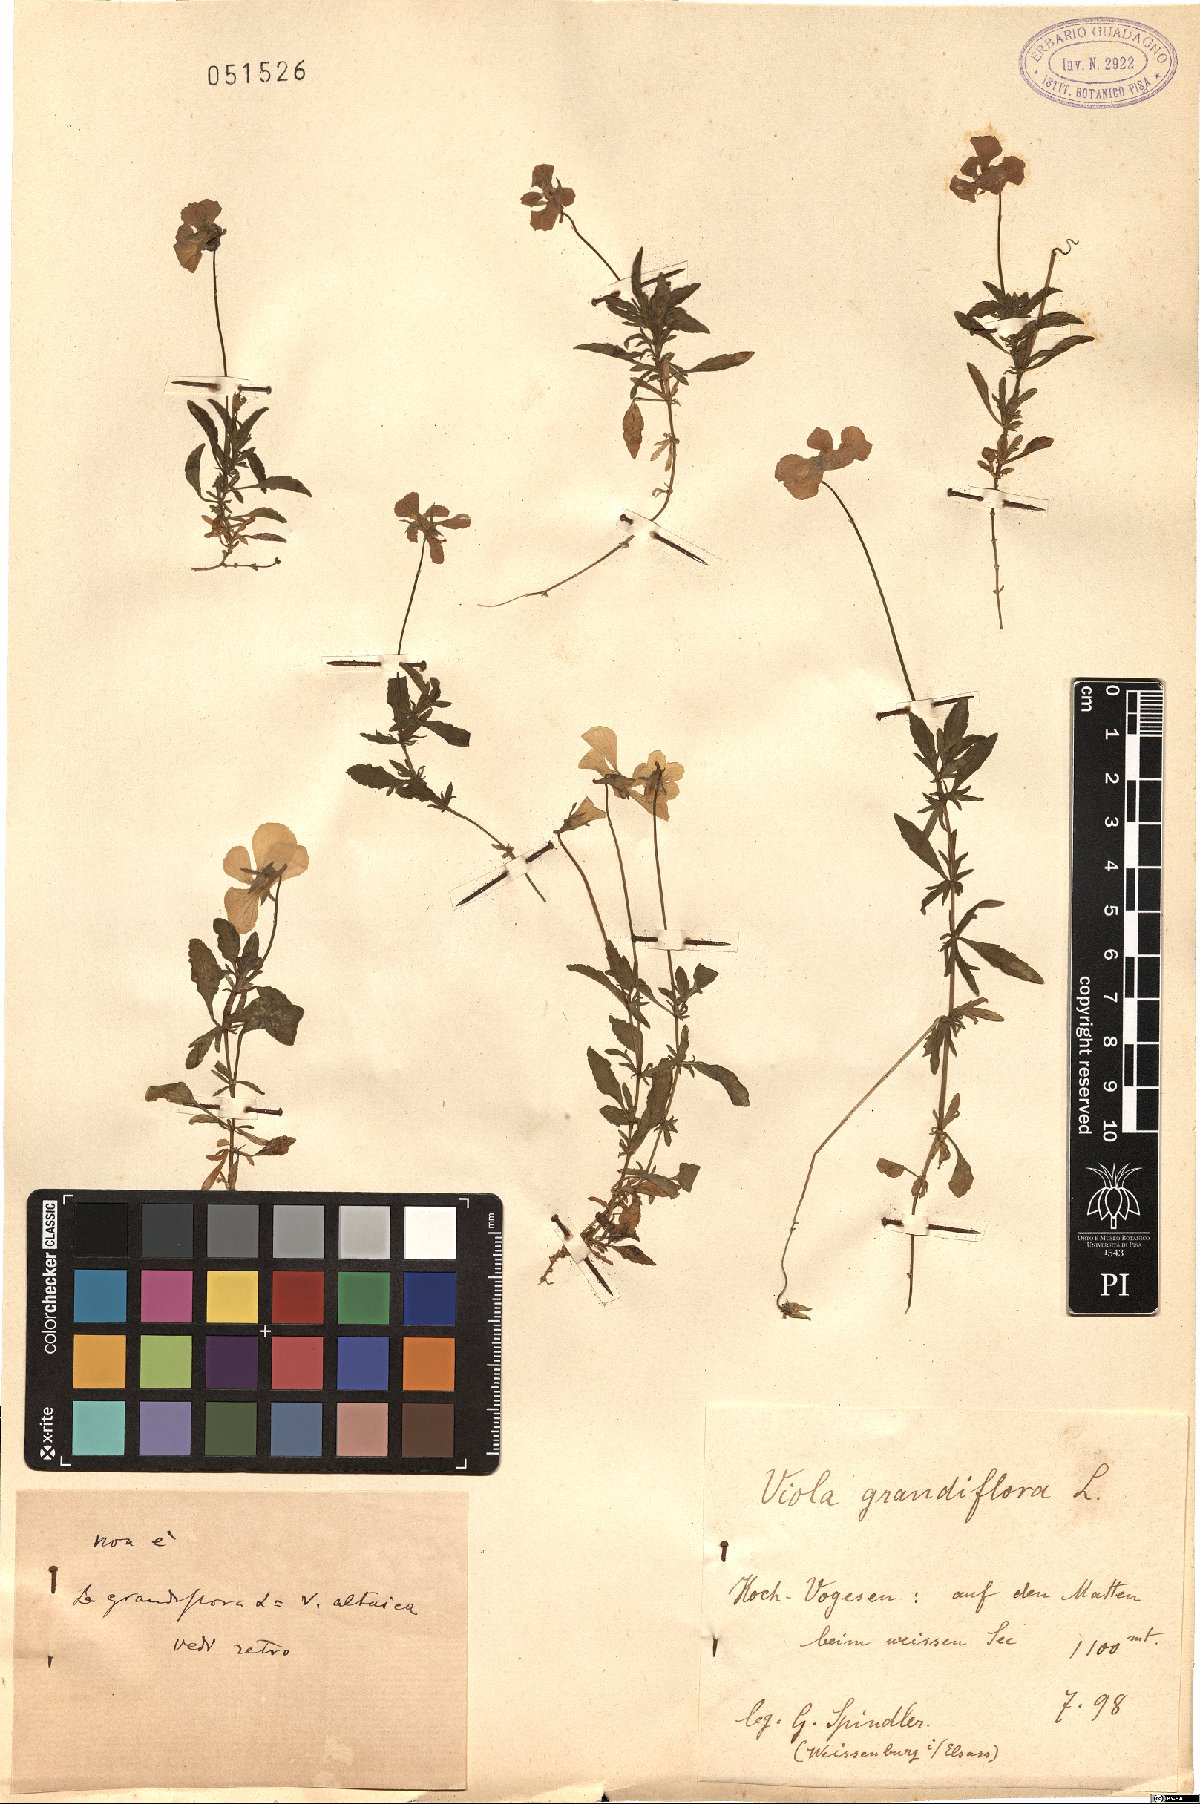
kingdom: Plantae
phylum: Tracheophyta
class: Magnoliopsida
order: Malpighiales
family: Violaceae
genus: Viola
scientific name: Viola altaica
